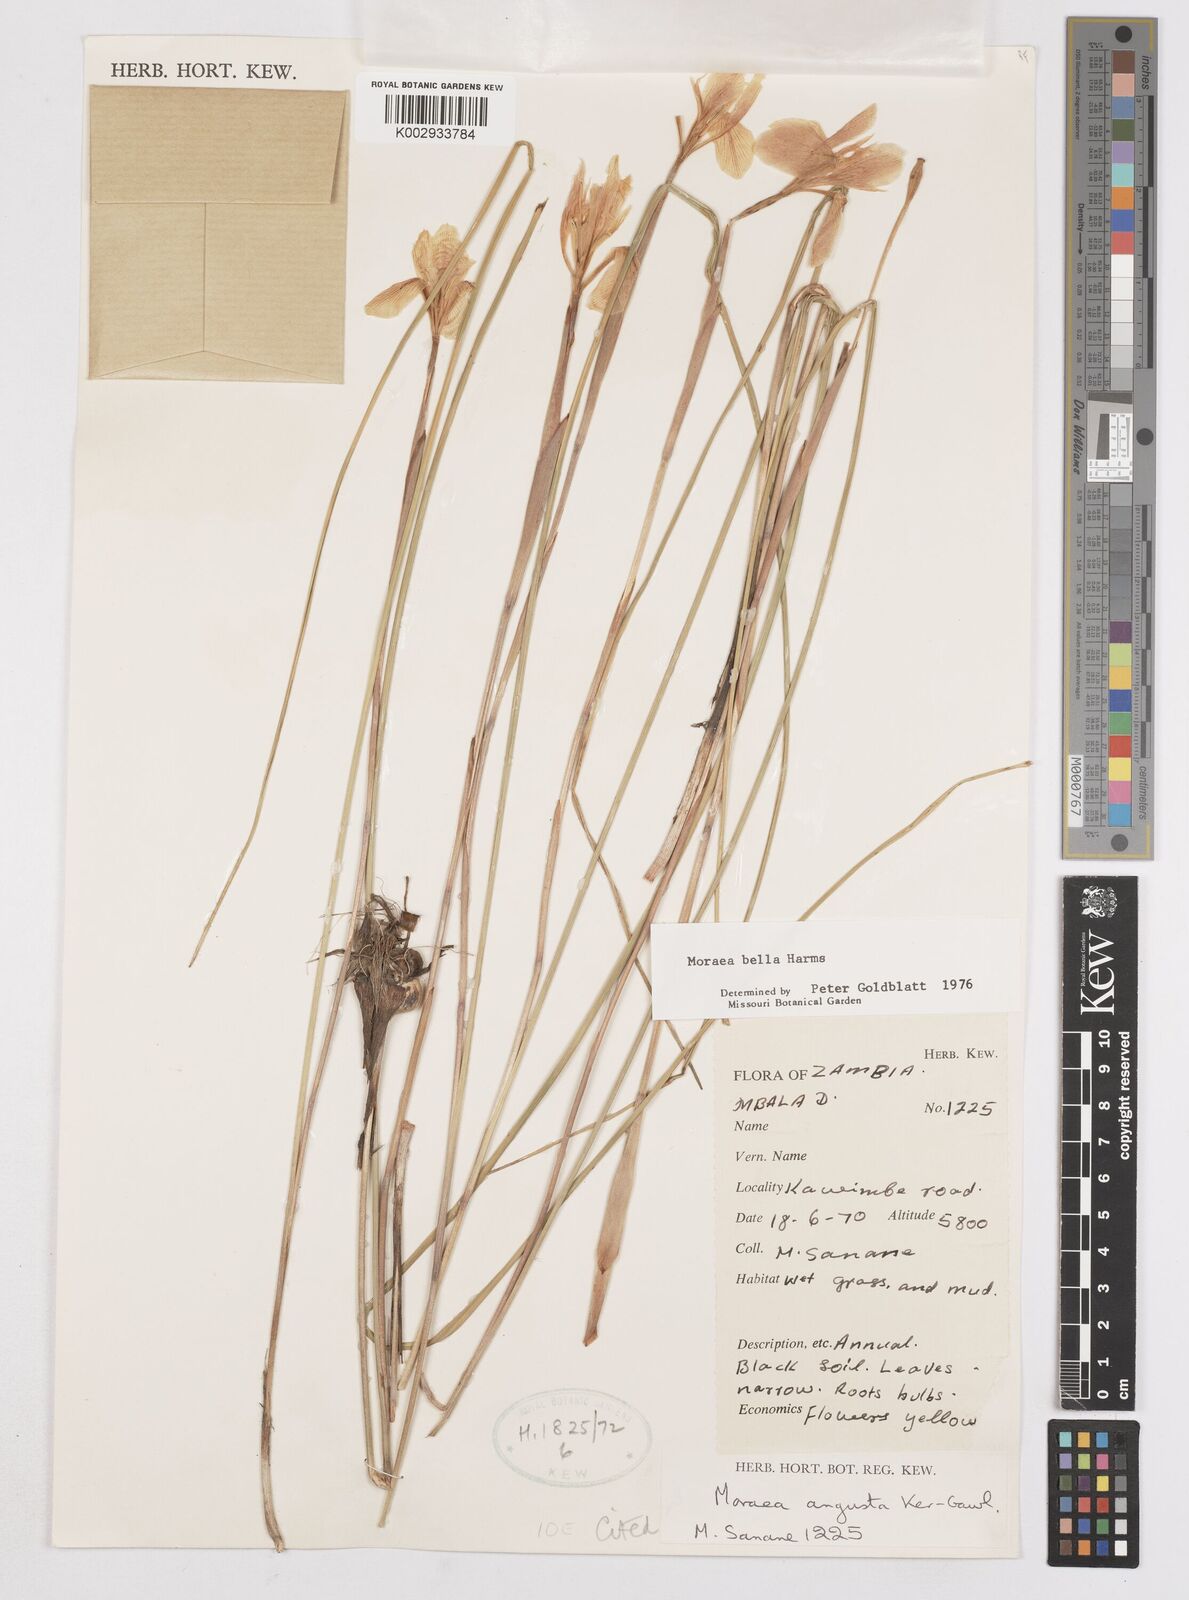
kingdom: Plantae
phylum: Tracheophyta
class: Liliopsida
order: Asparagales
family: Iridaceae
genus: Moraea
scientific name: Moraea verdickii
